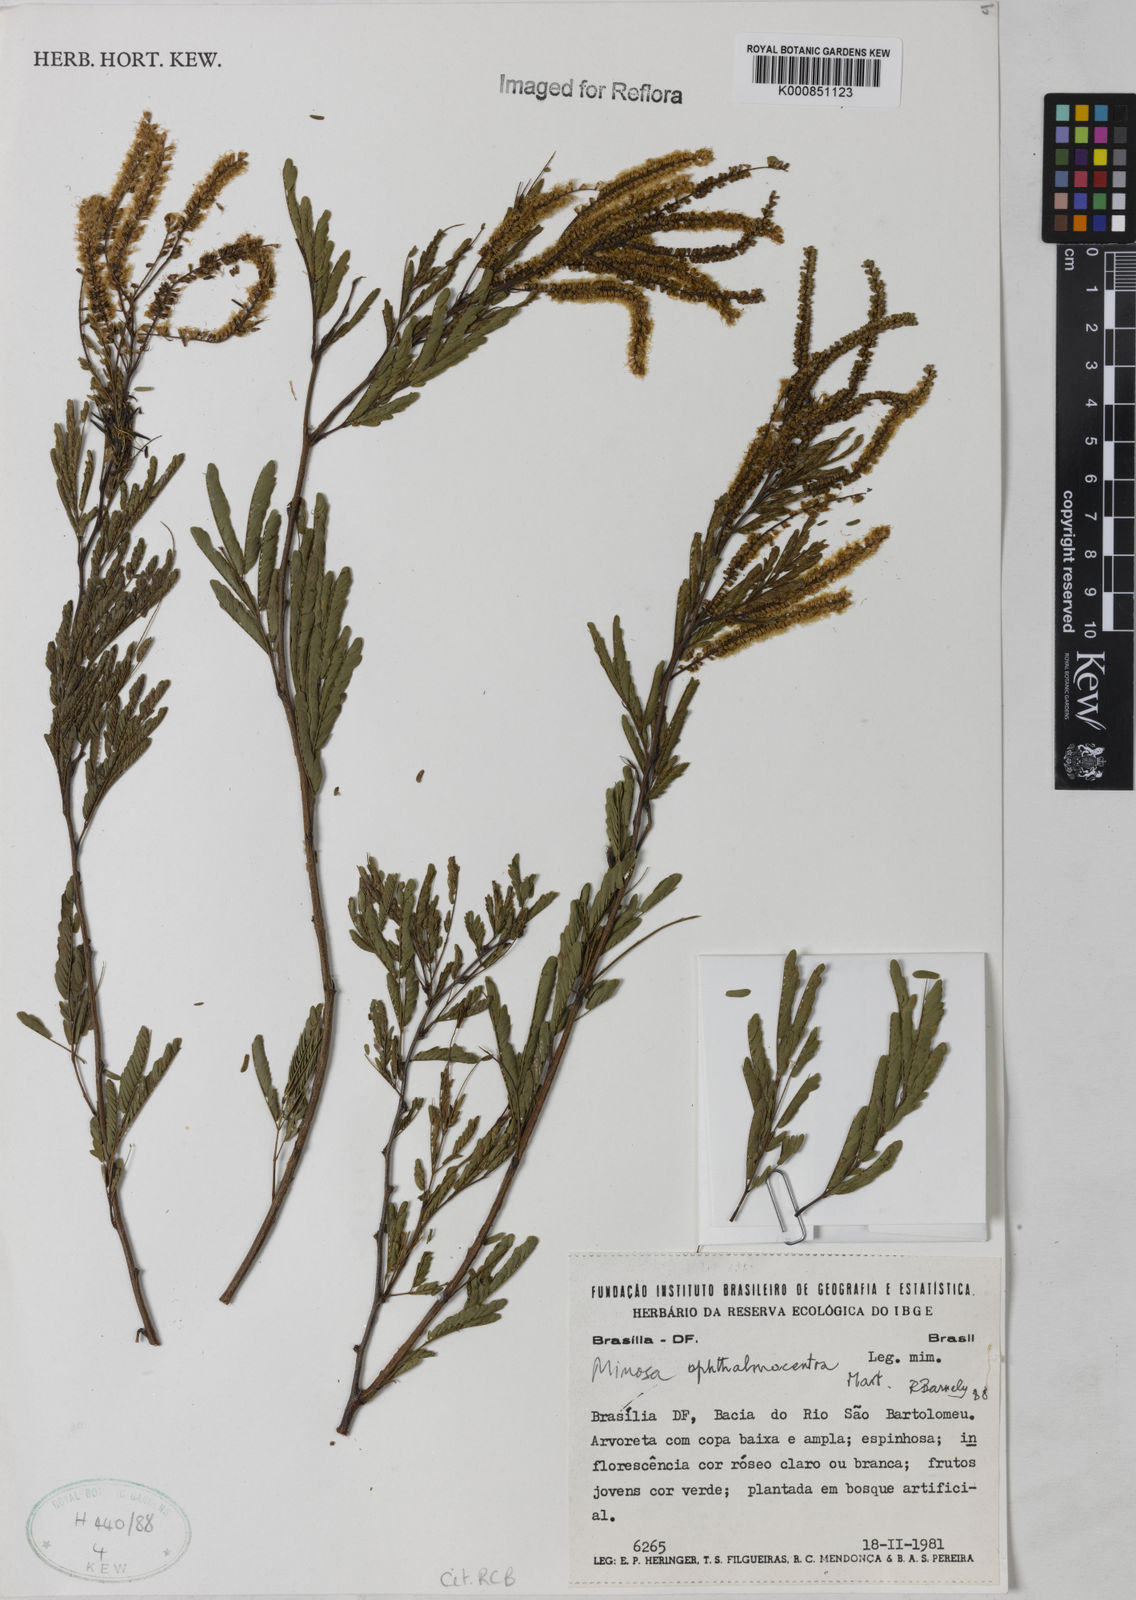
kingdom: Plantae
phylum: Tracheophyta
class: Magnoliopsida
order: Fabales
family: Fabaceae
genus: Mimosa
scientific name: Mimosa ophthalmocentra
